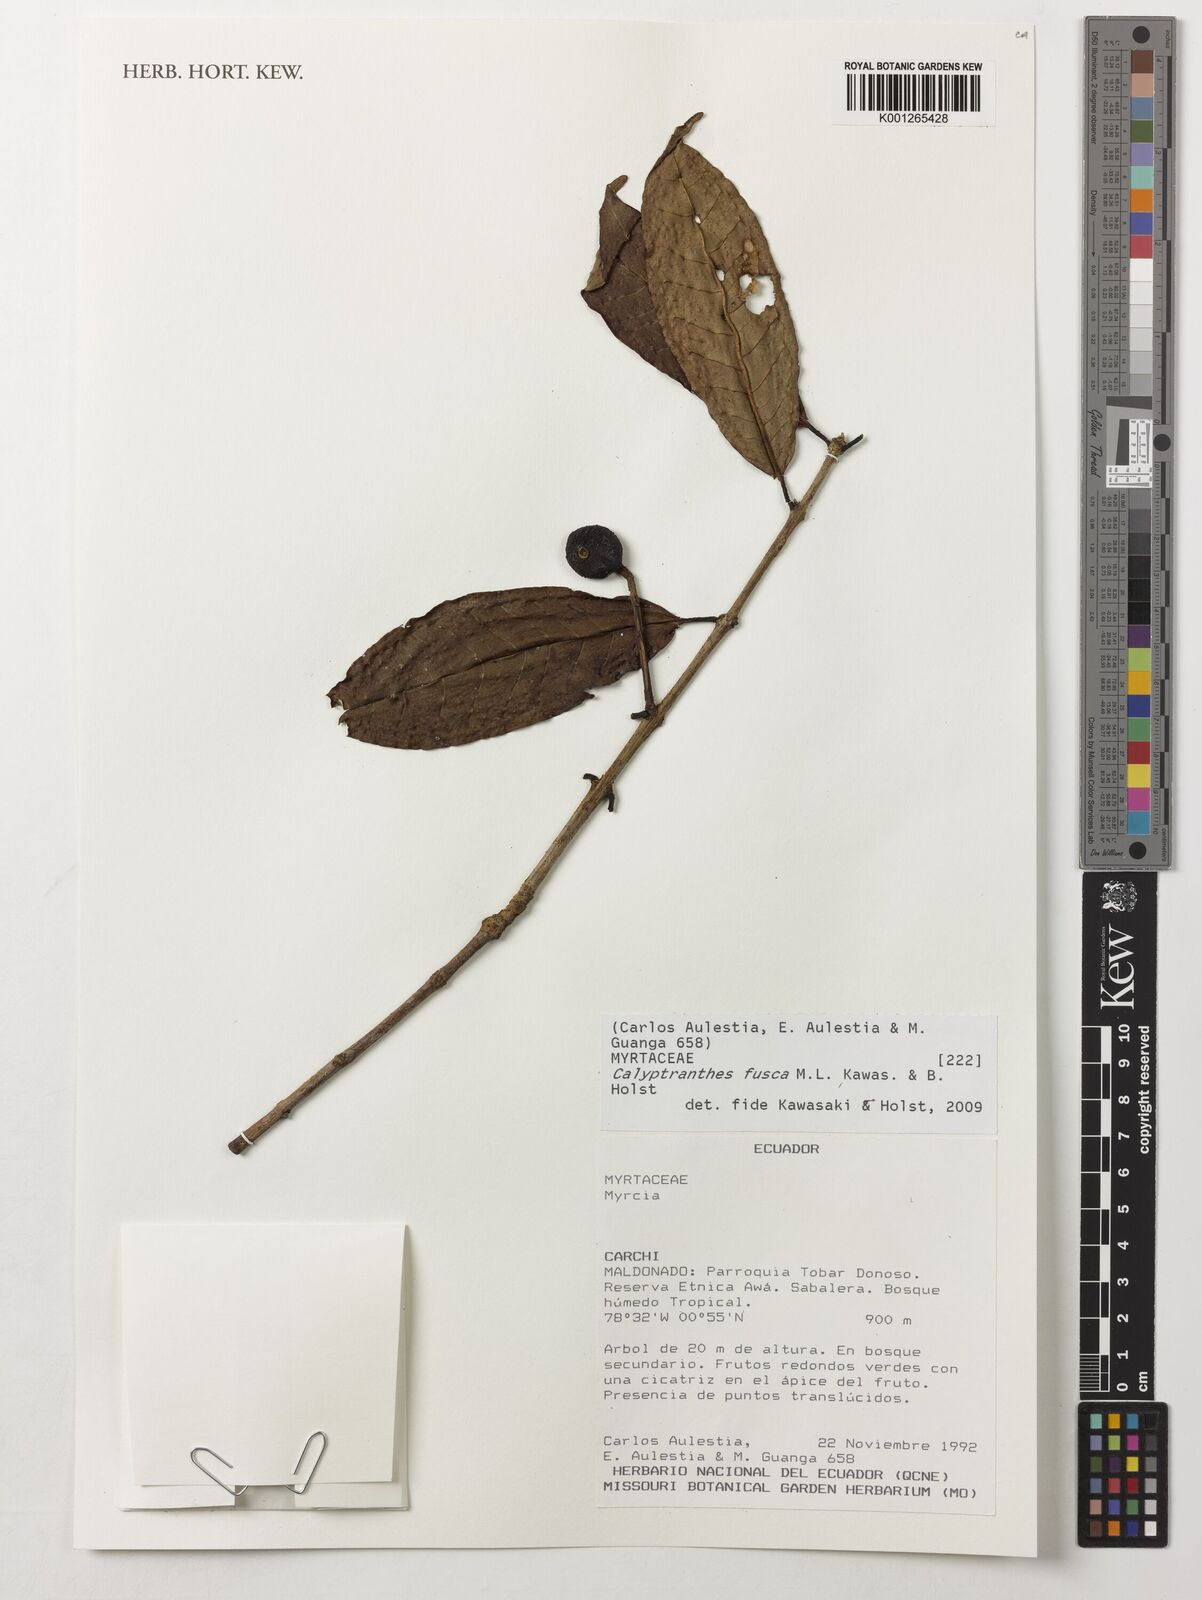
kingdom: Plantae
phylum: Tracheophyta
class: Magnoliopsida
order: Myrtales
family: Myrtaceae
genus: Myrcia
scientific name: Myrcia neofusca
